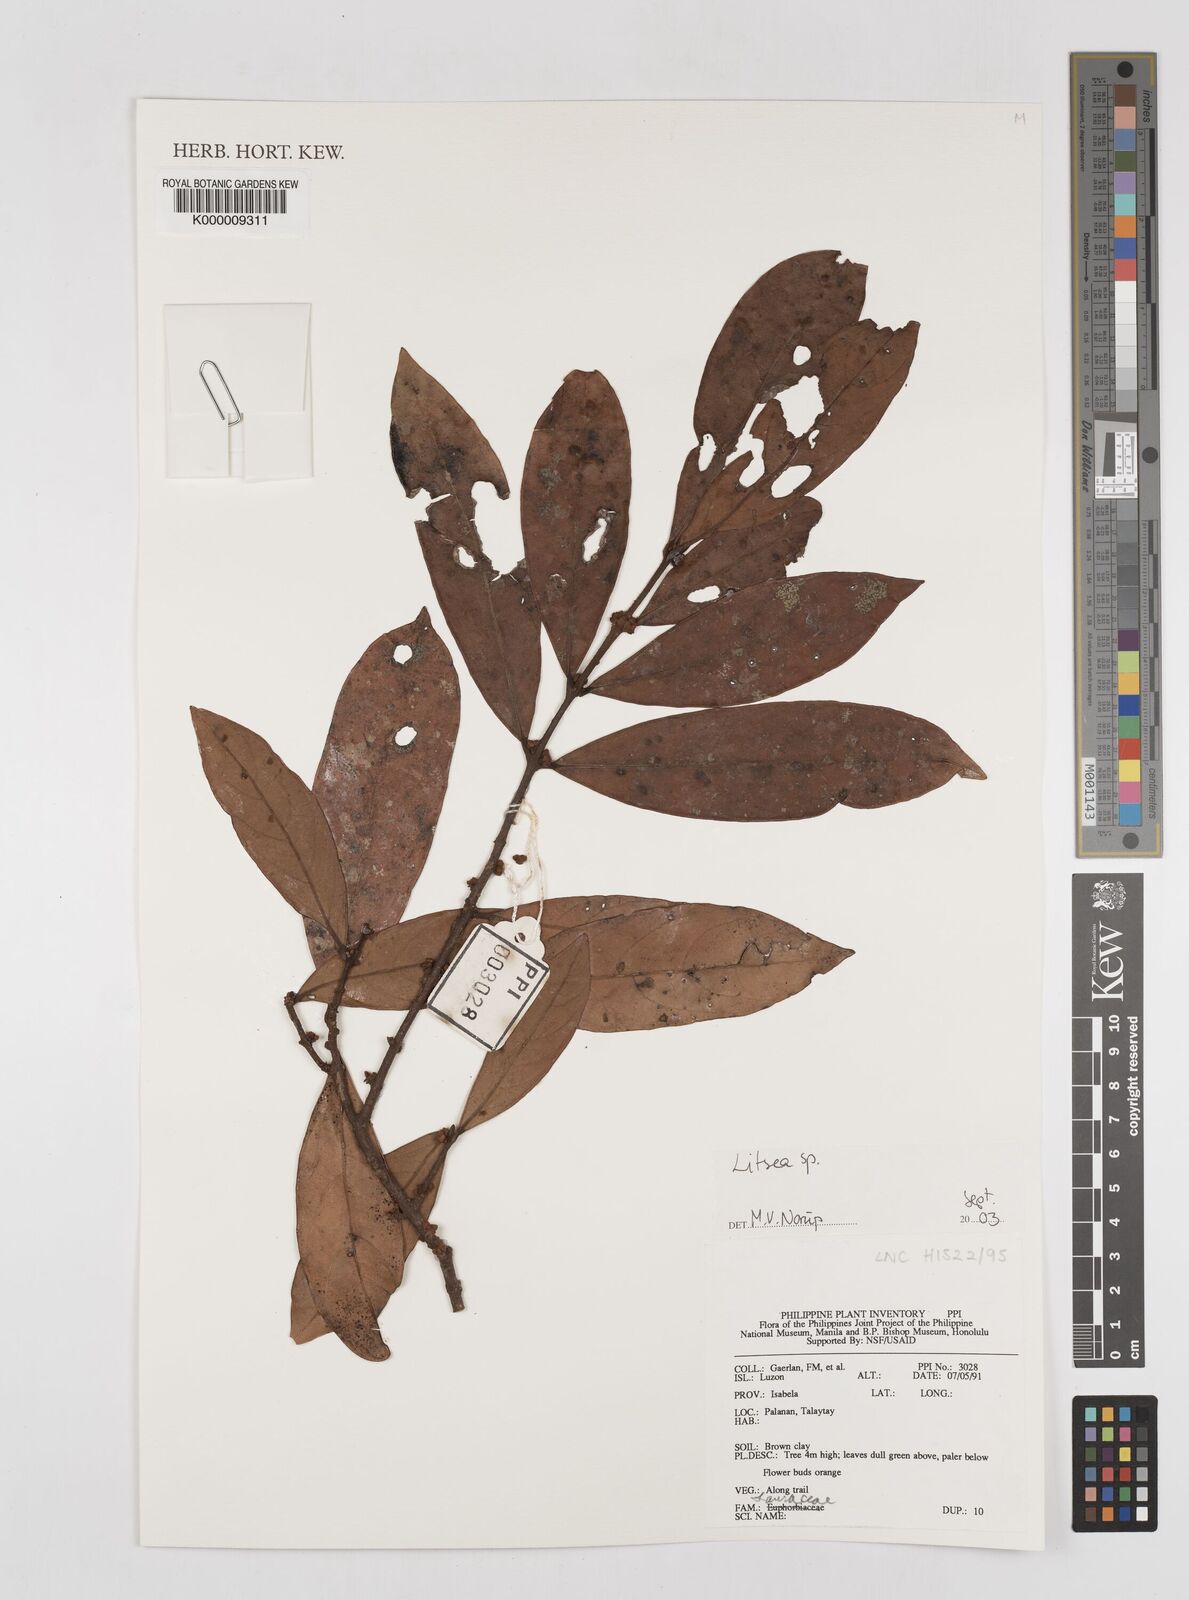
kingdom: Plantae
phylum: Tracheophyta
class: Magnoliopsida
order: Laurales
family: Lauraceae
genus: Litsea
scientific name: Litsea
